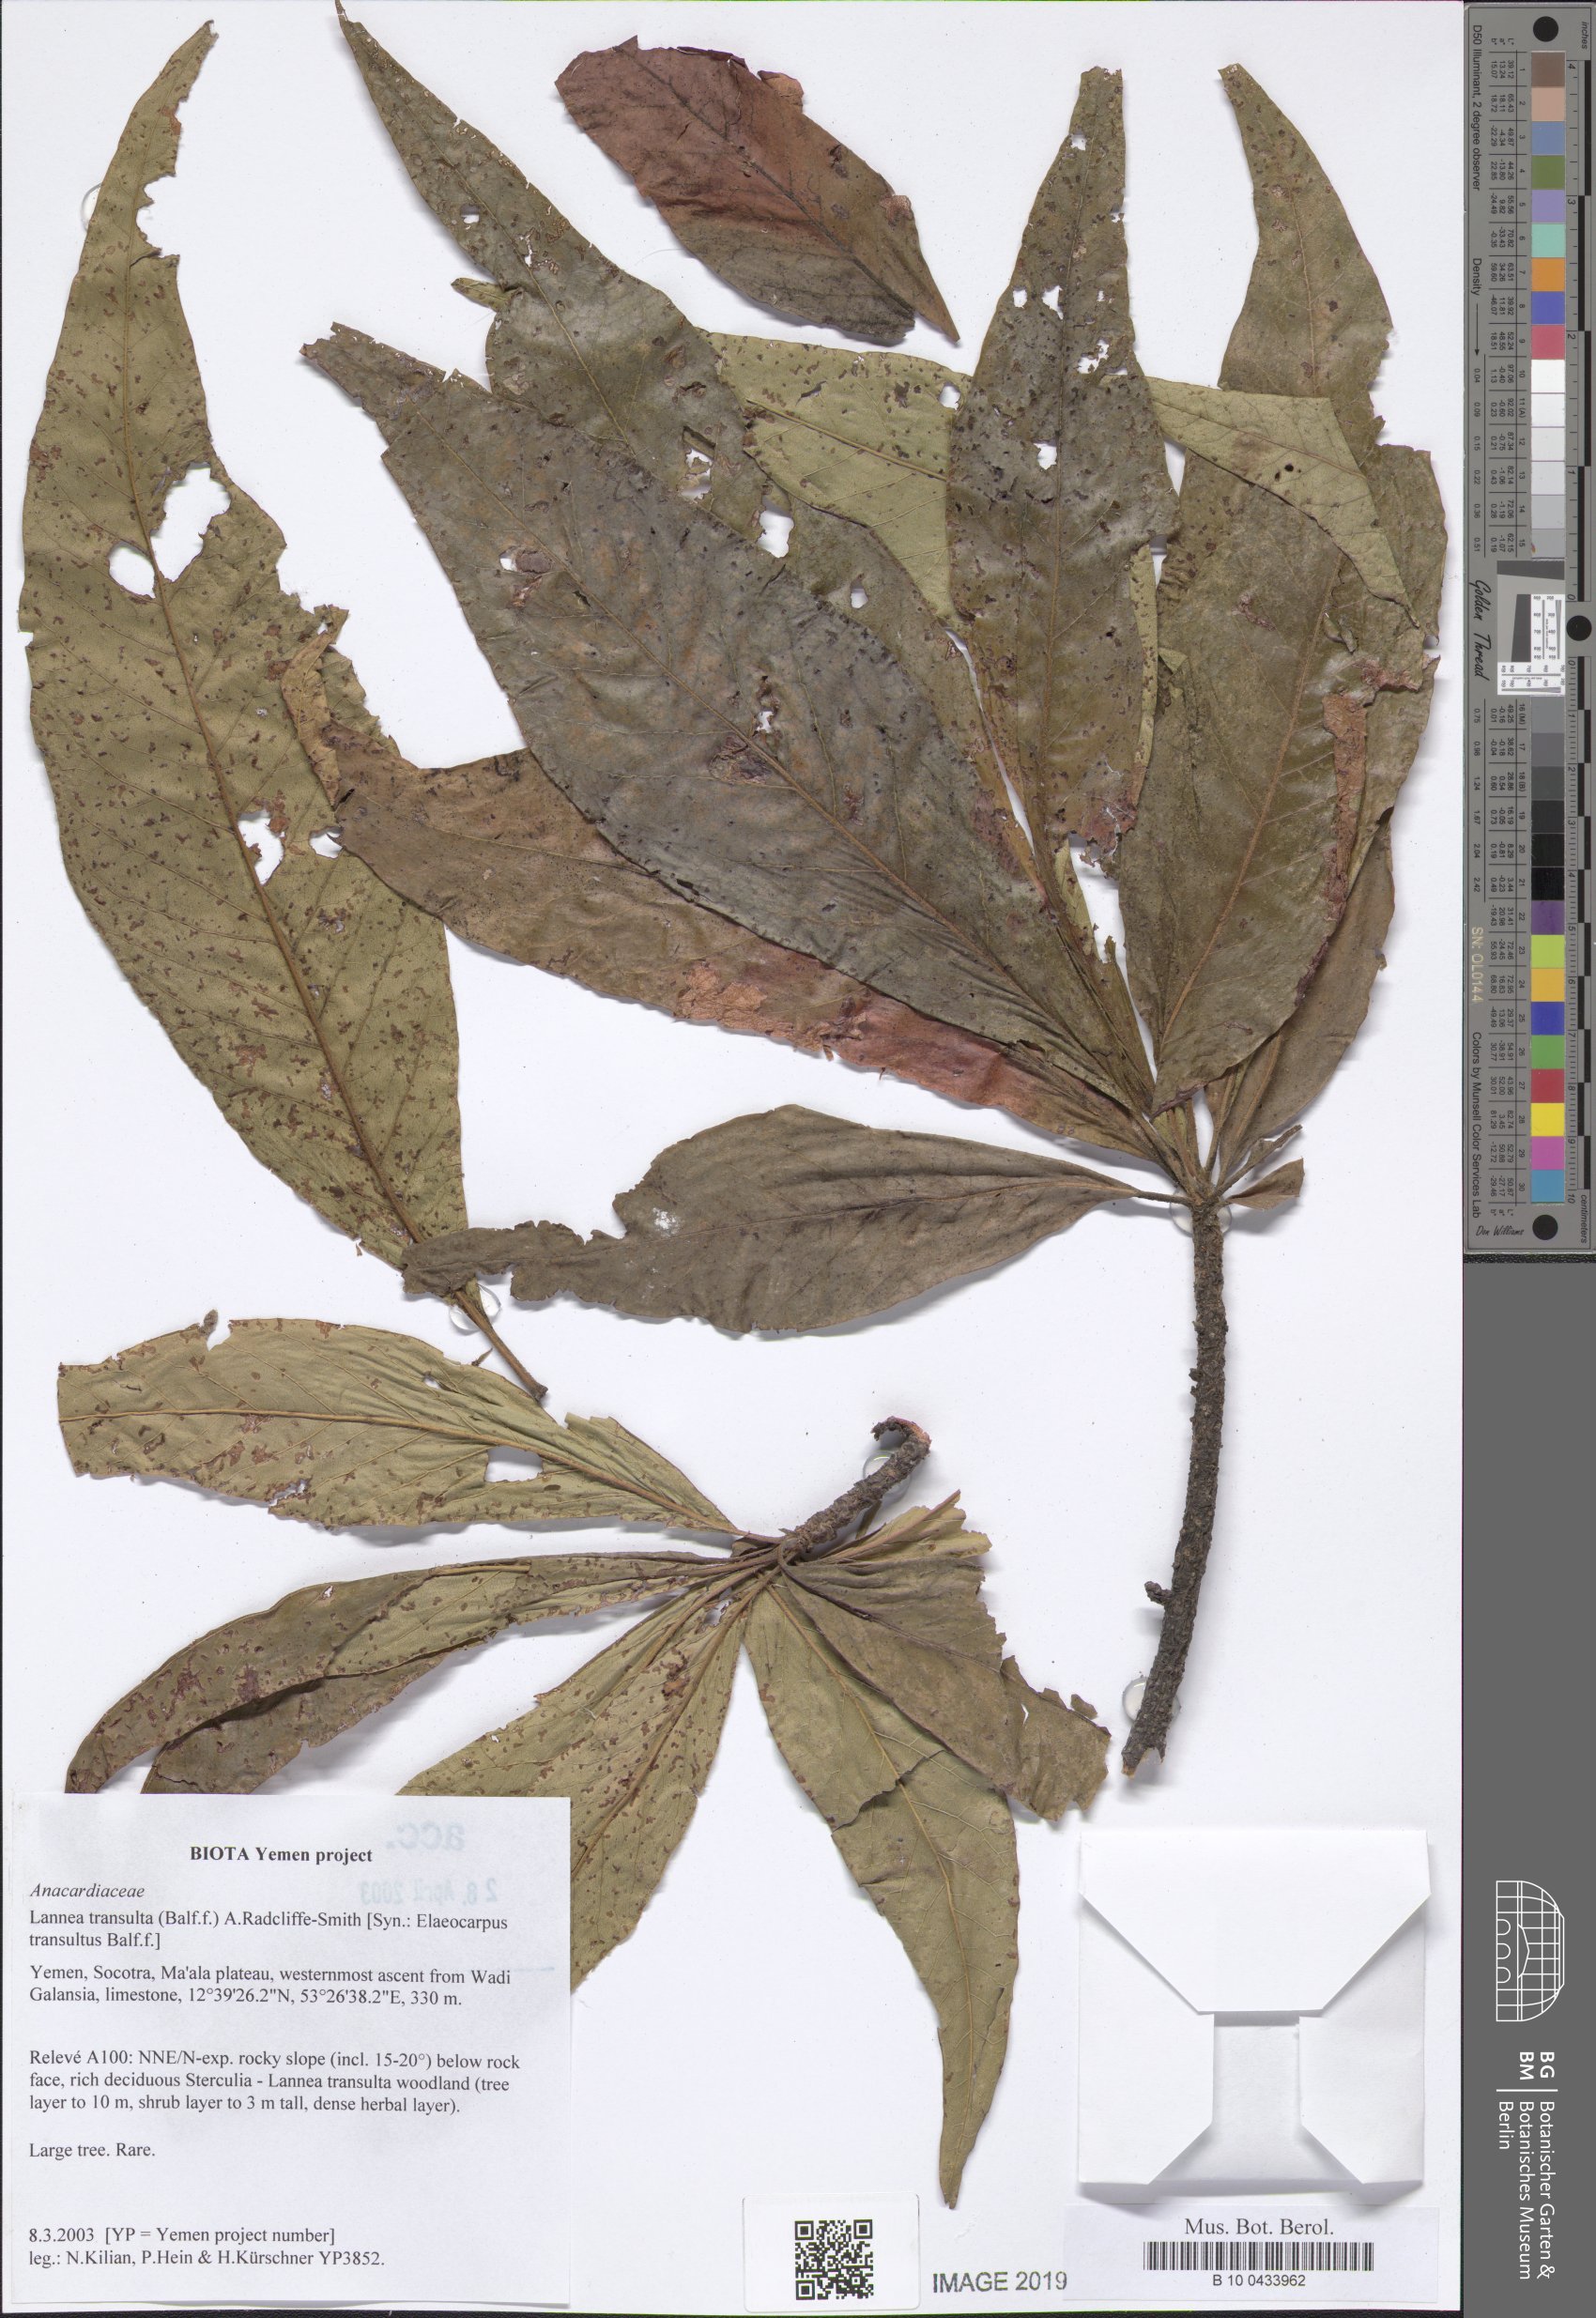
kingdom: Plantae
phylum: Tracheophyta
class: Magnoliopsida
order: Sapindales
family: Anacardiaceae
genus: Lannea
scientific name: Lannea transulta
